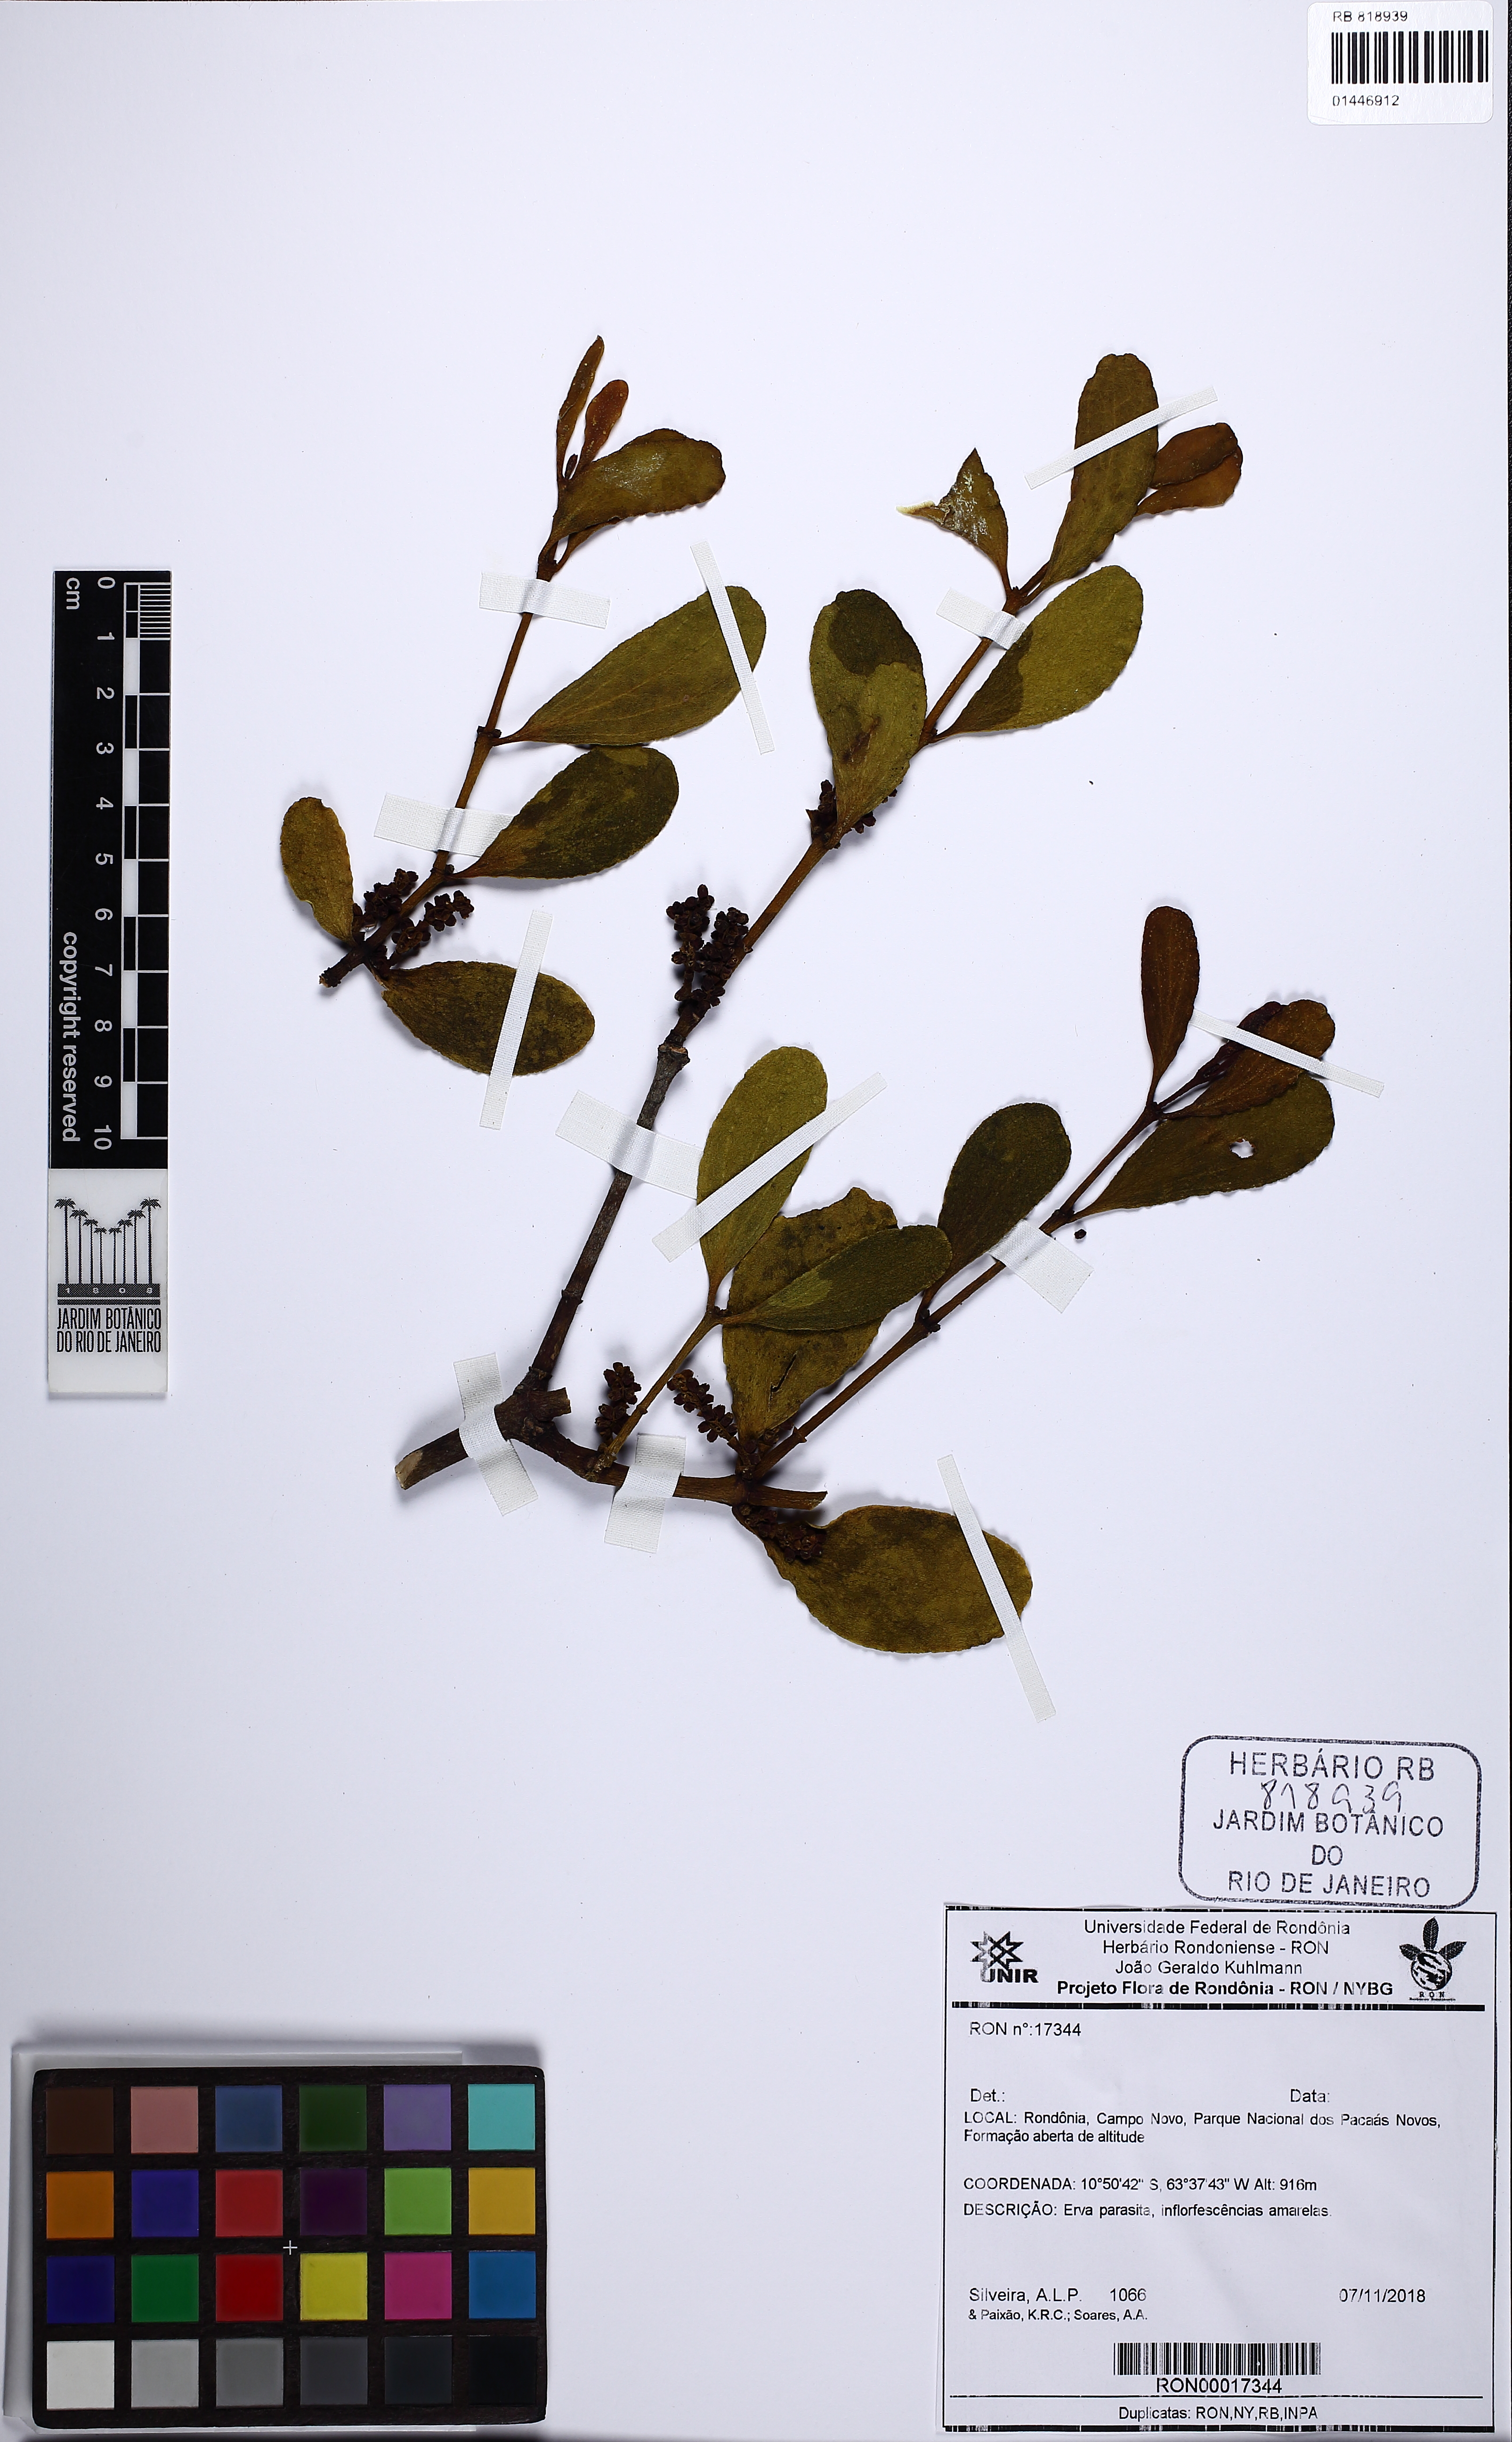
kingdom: Plantae
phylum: Tracheophyta
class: Magnoliopsida
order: Santalales
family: Viscaceae
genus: Dendrophthora
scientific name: Dendrophthora warmingii
